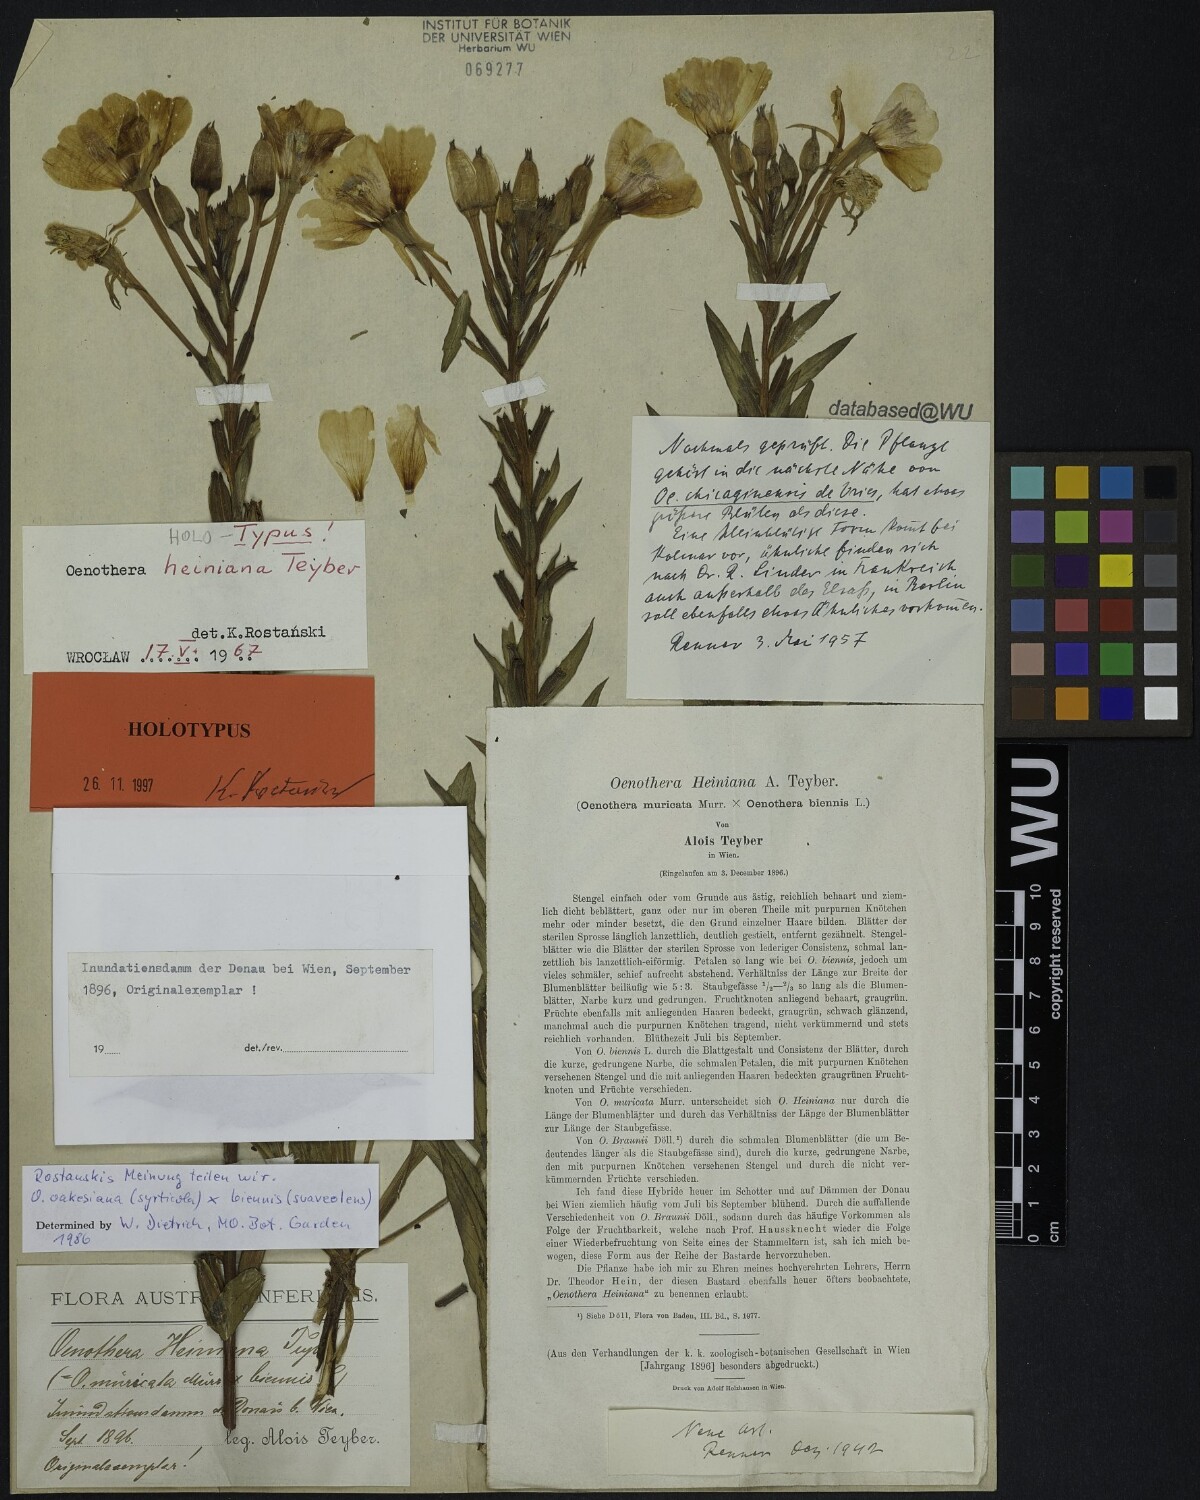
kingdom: Plantae
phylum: Tracheophyta
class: Magnoliopsida
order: Myrtales
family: Onagraceae
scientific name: Onagraceae
